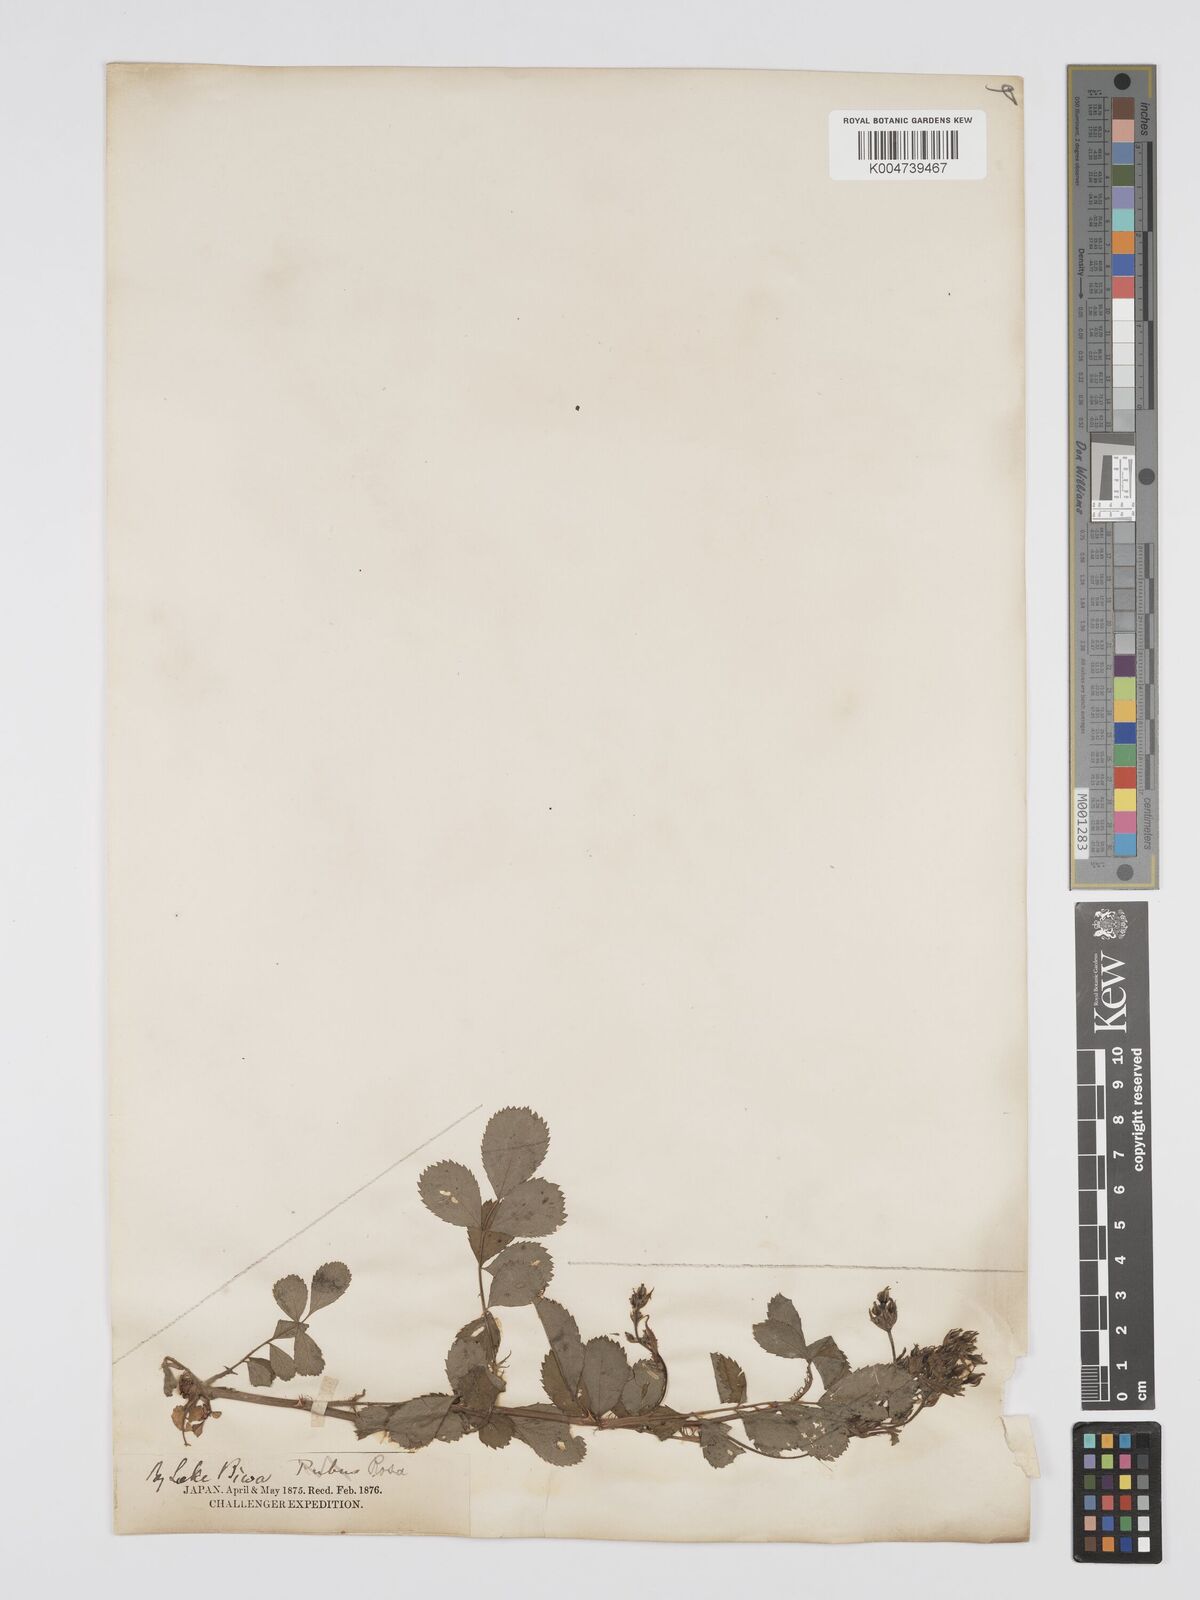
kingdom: Plantae
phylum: Tracheophyta
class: Magnoliopsida
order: Rosales
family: Rosaceae
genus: Rosa
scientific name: Rosa
